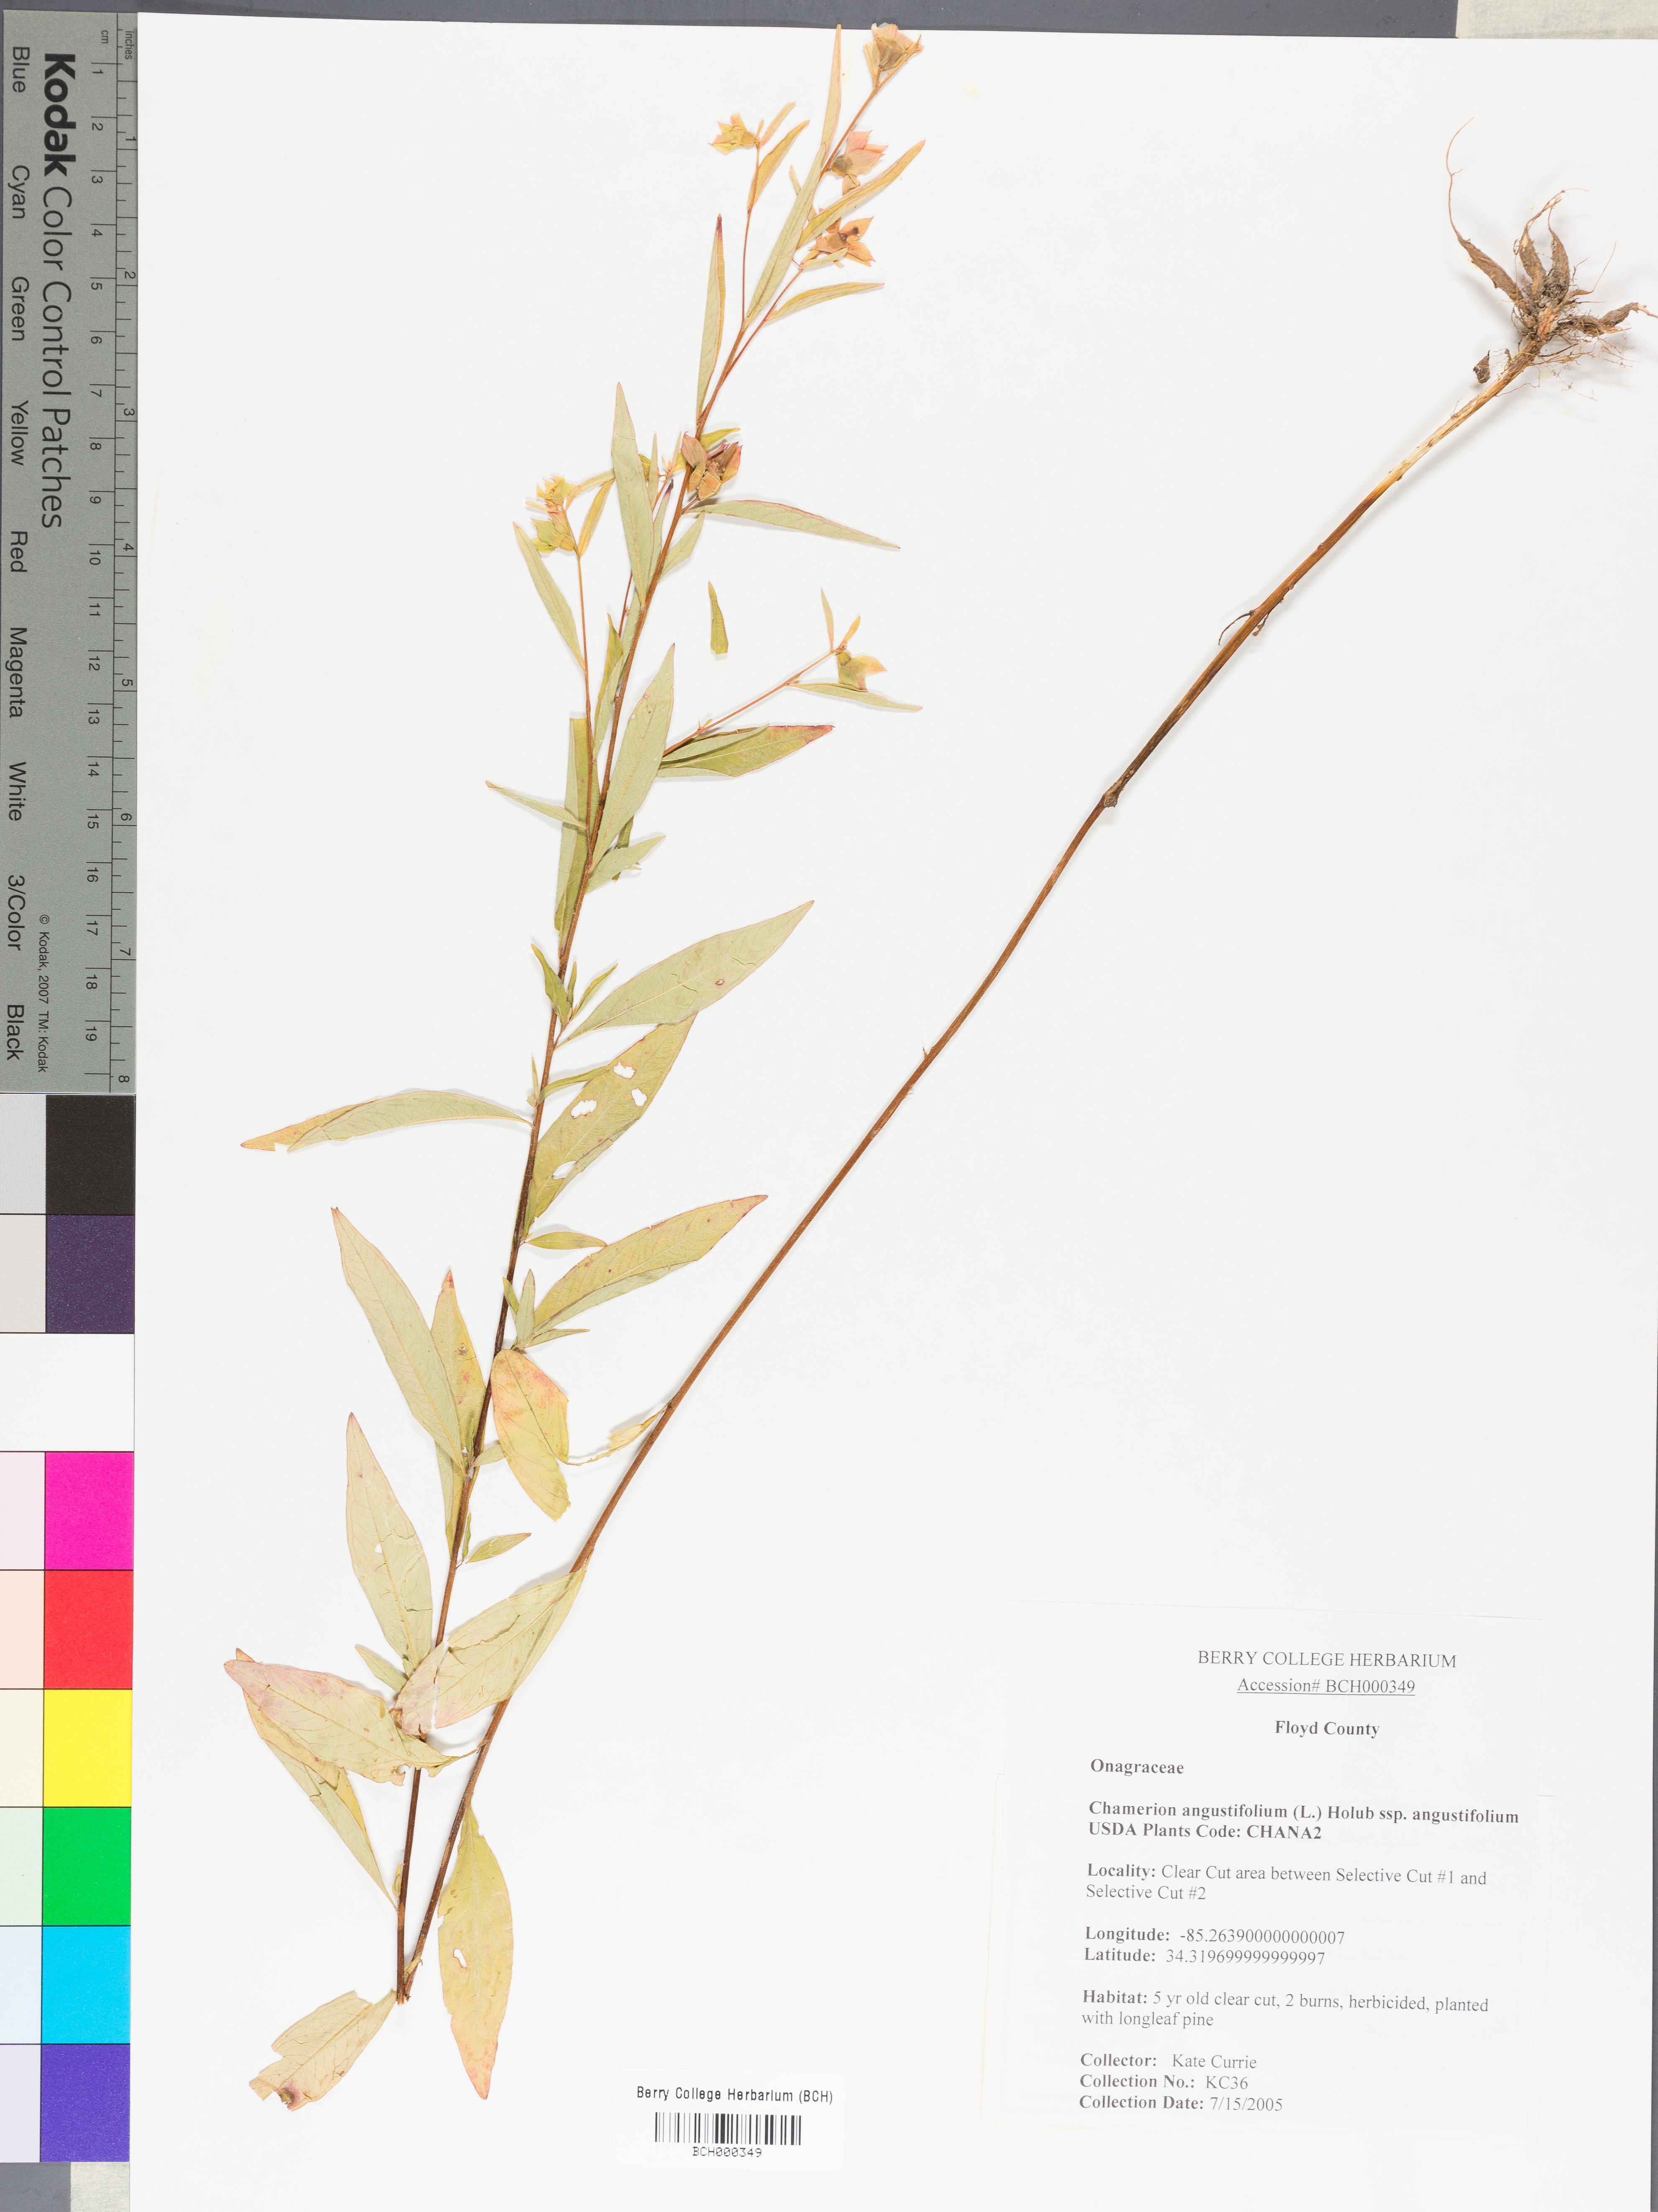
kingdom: Plantae
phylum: Tracheophyta
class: Magnoliopsida
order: Myrtales
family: Onagraceae
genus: Chamaenerion
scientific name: Chamaenerion angustifolium
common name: Fireweed
